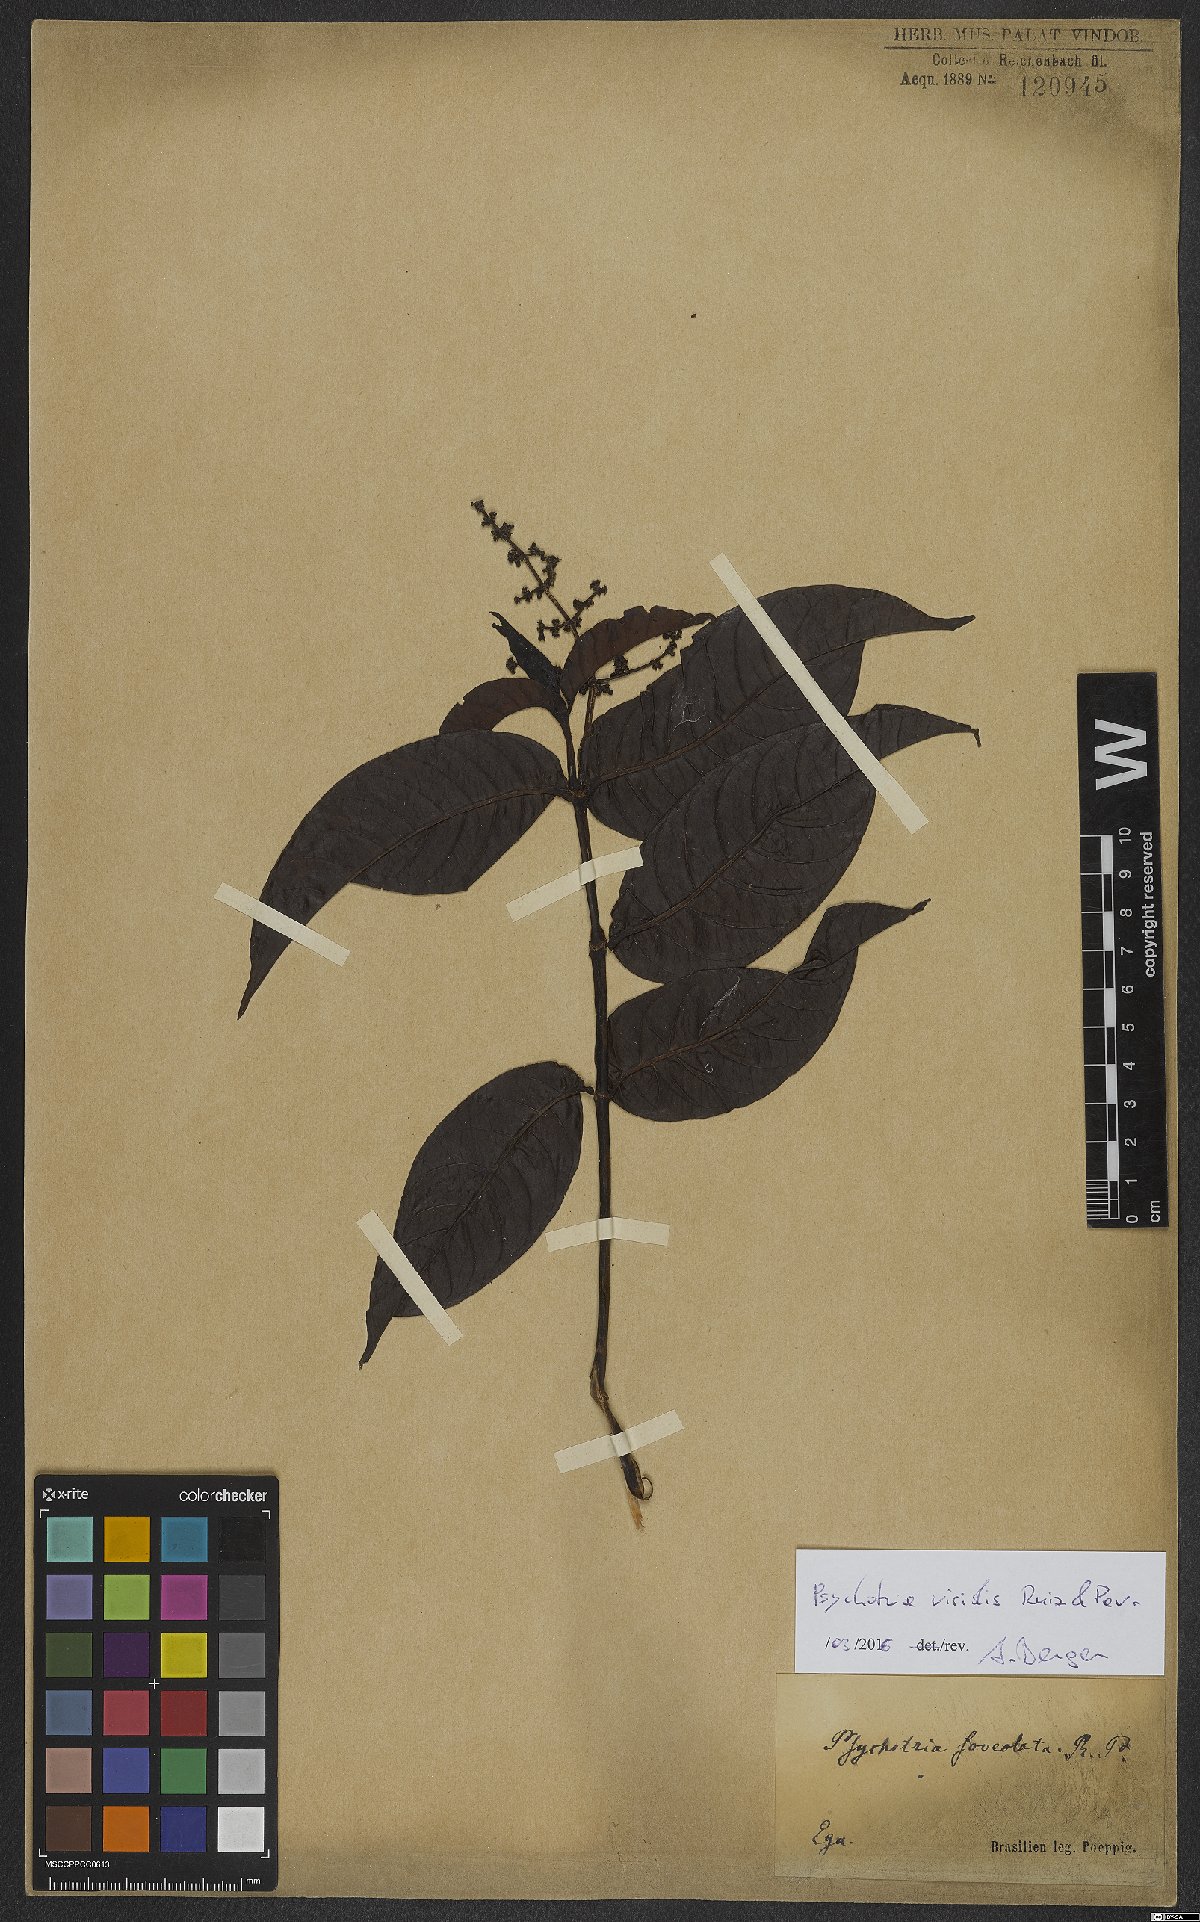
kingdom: Plantae
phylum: Tracheophyta
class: Magnoliopsida
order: Gentianales
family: Rubiaceae
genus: Psychotria
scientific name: Psychotria viridis
